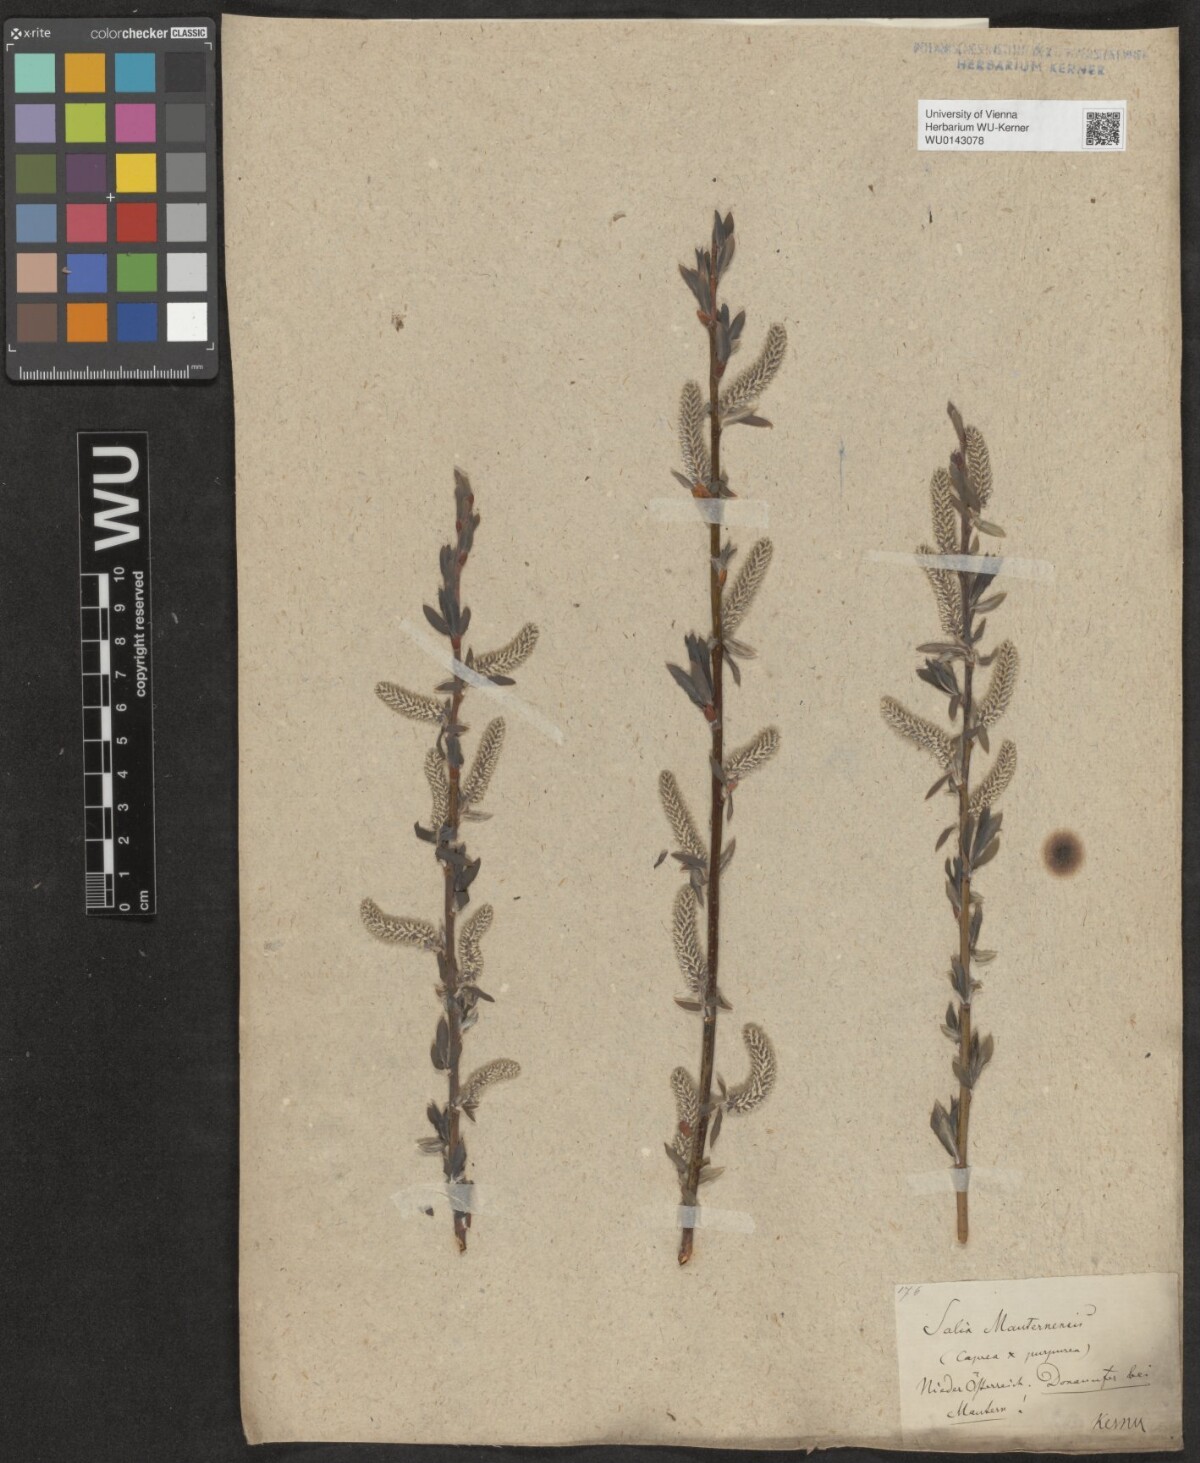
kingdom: Plantae
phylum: Tracheophyta
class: Magnoliopsida
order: Malpighiales
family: Salicaceae
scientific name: Salicaceae
